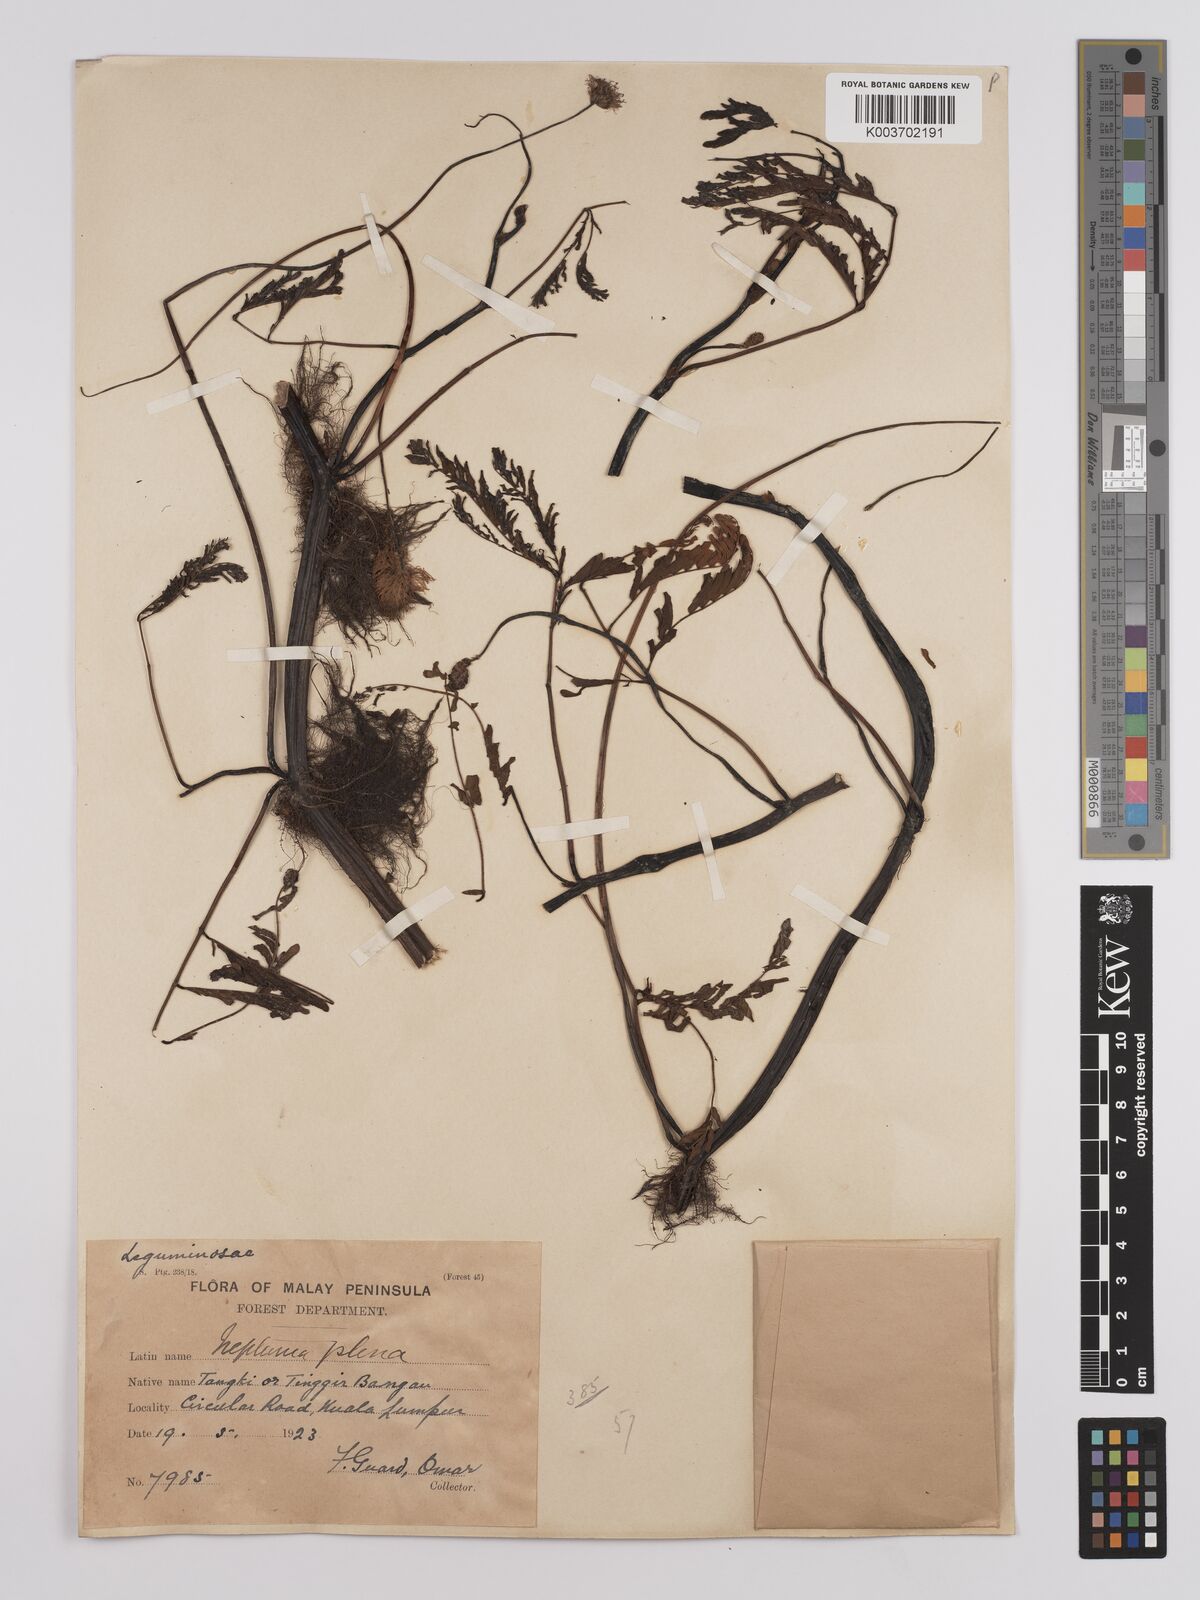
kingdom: Plantae
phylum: Tracheophyta
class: Magnoliopsida
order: Fabales
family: Fabaceae
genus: Neptunia
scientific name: Neptunia prostrata
